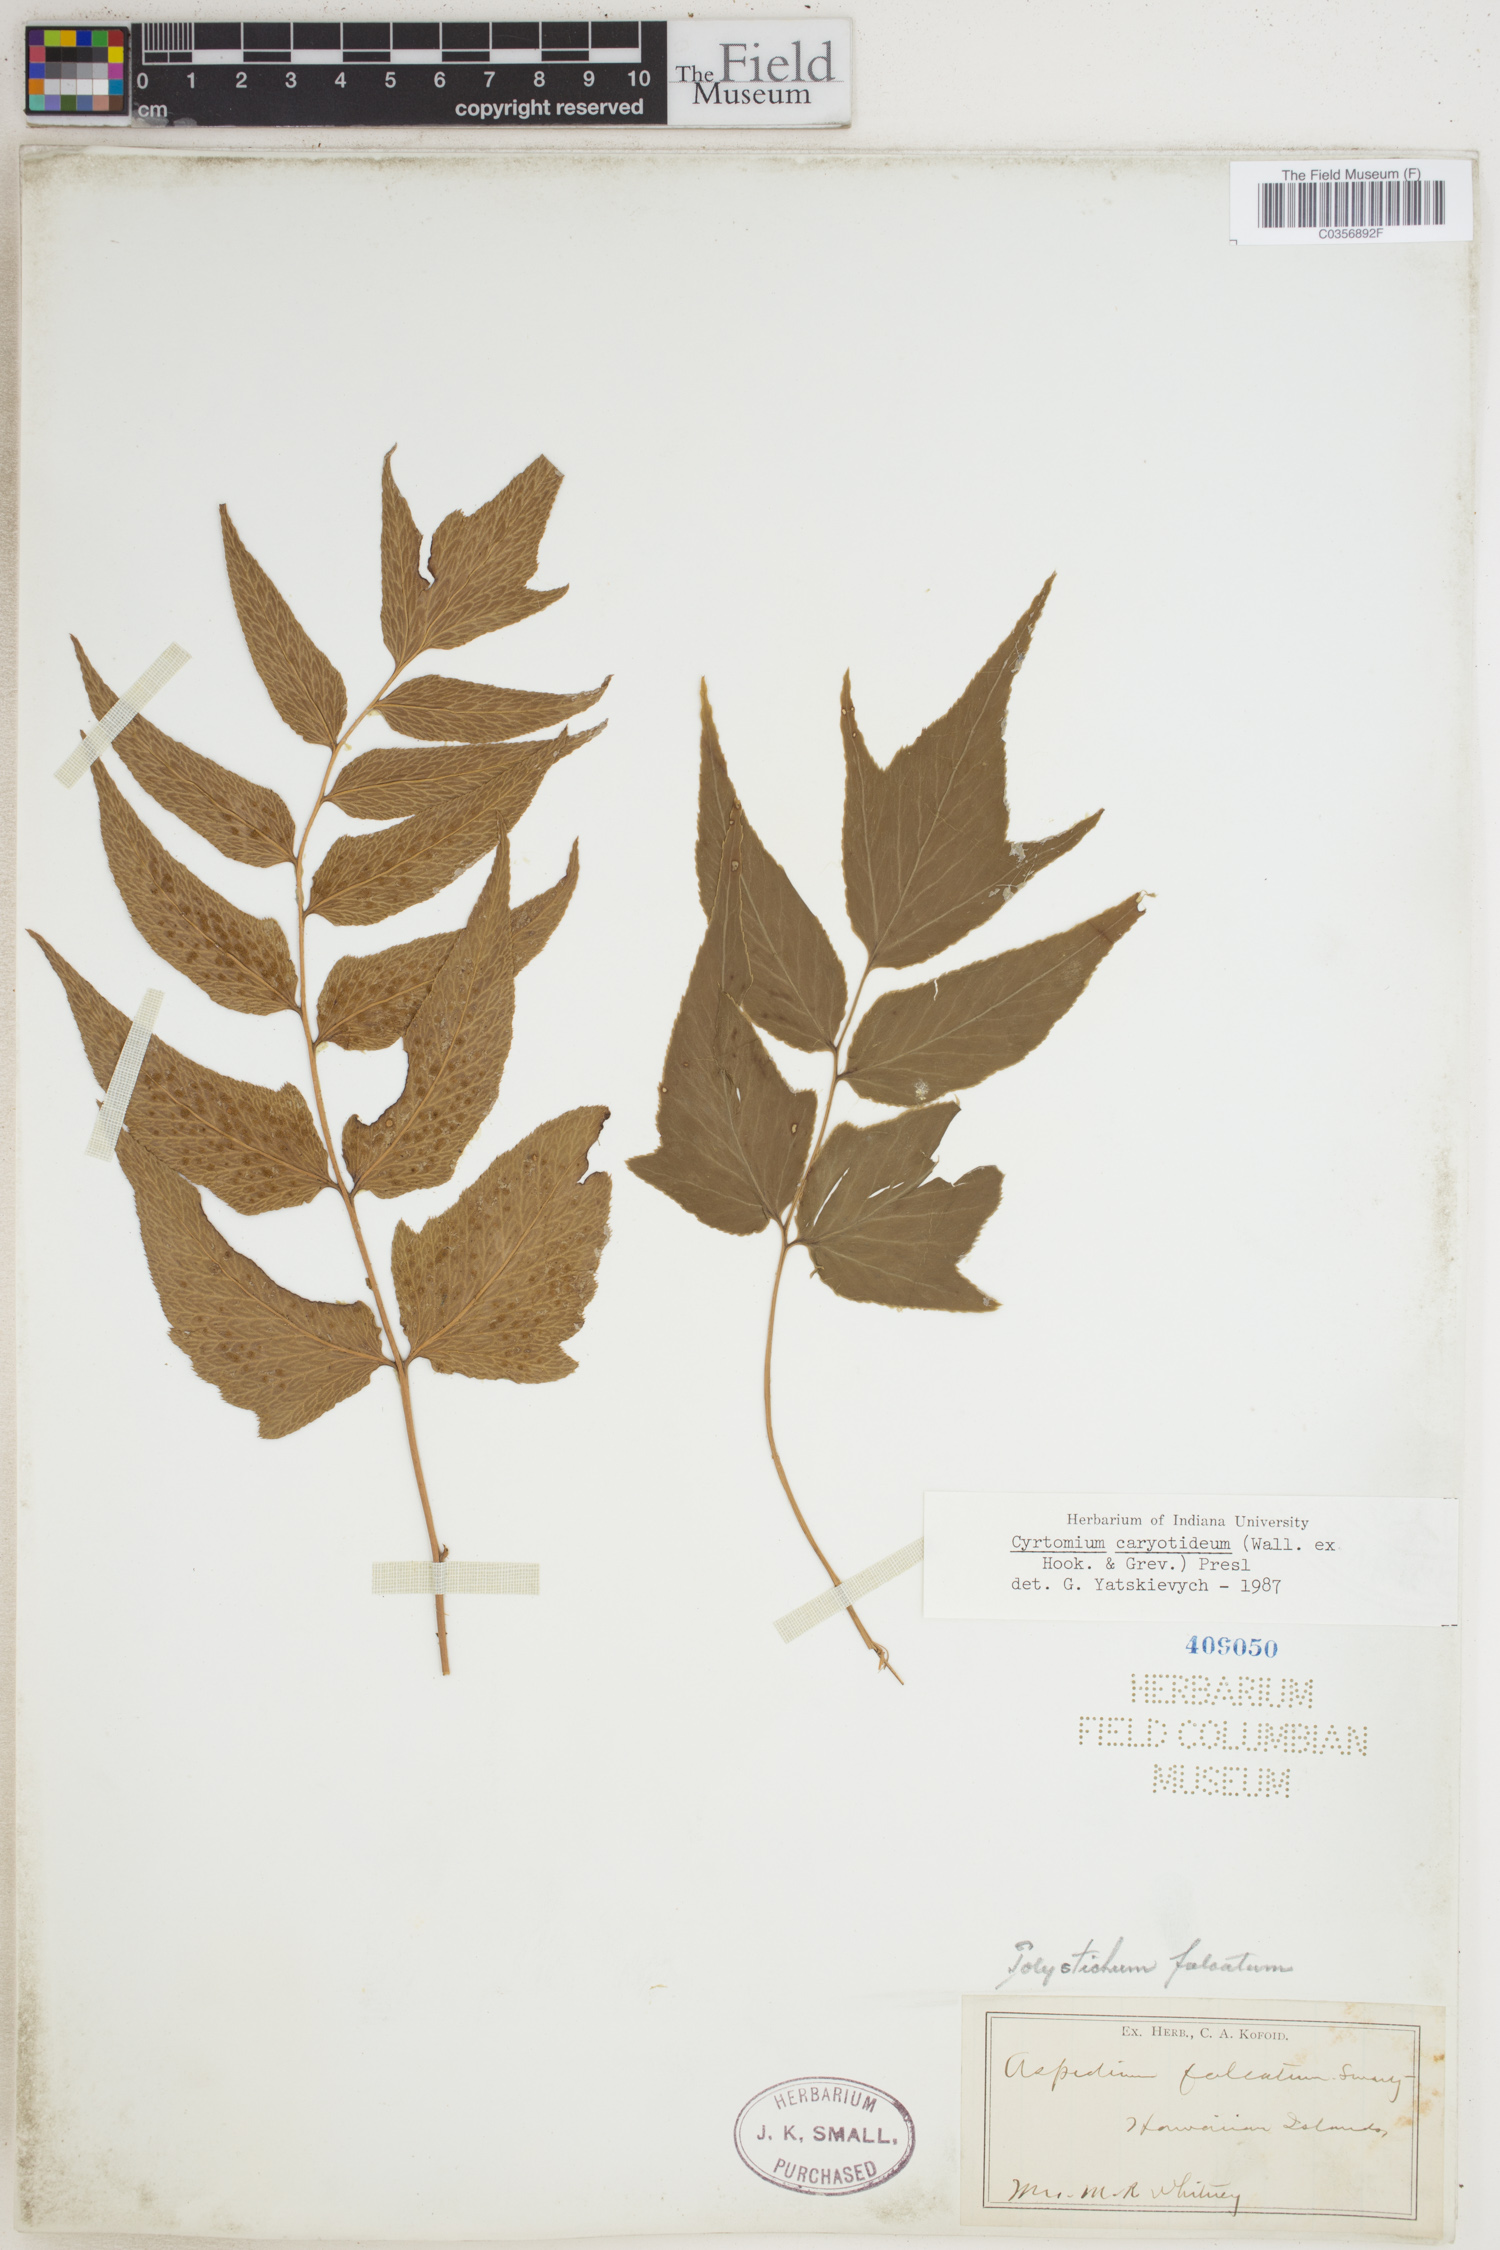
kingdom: Plantae
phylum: Tracheophyta
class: Polypodiopsida
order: Polypodiales
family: Dryopteridaceae
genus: Cyrtomium
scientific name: Cyrtomium caryotideum
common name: Asiatic holly fern
